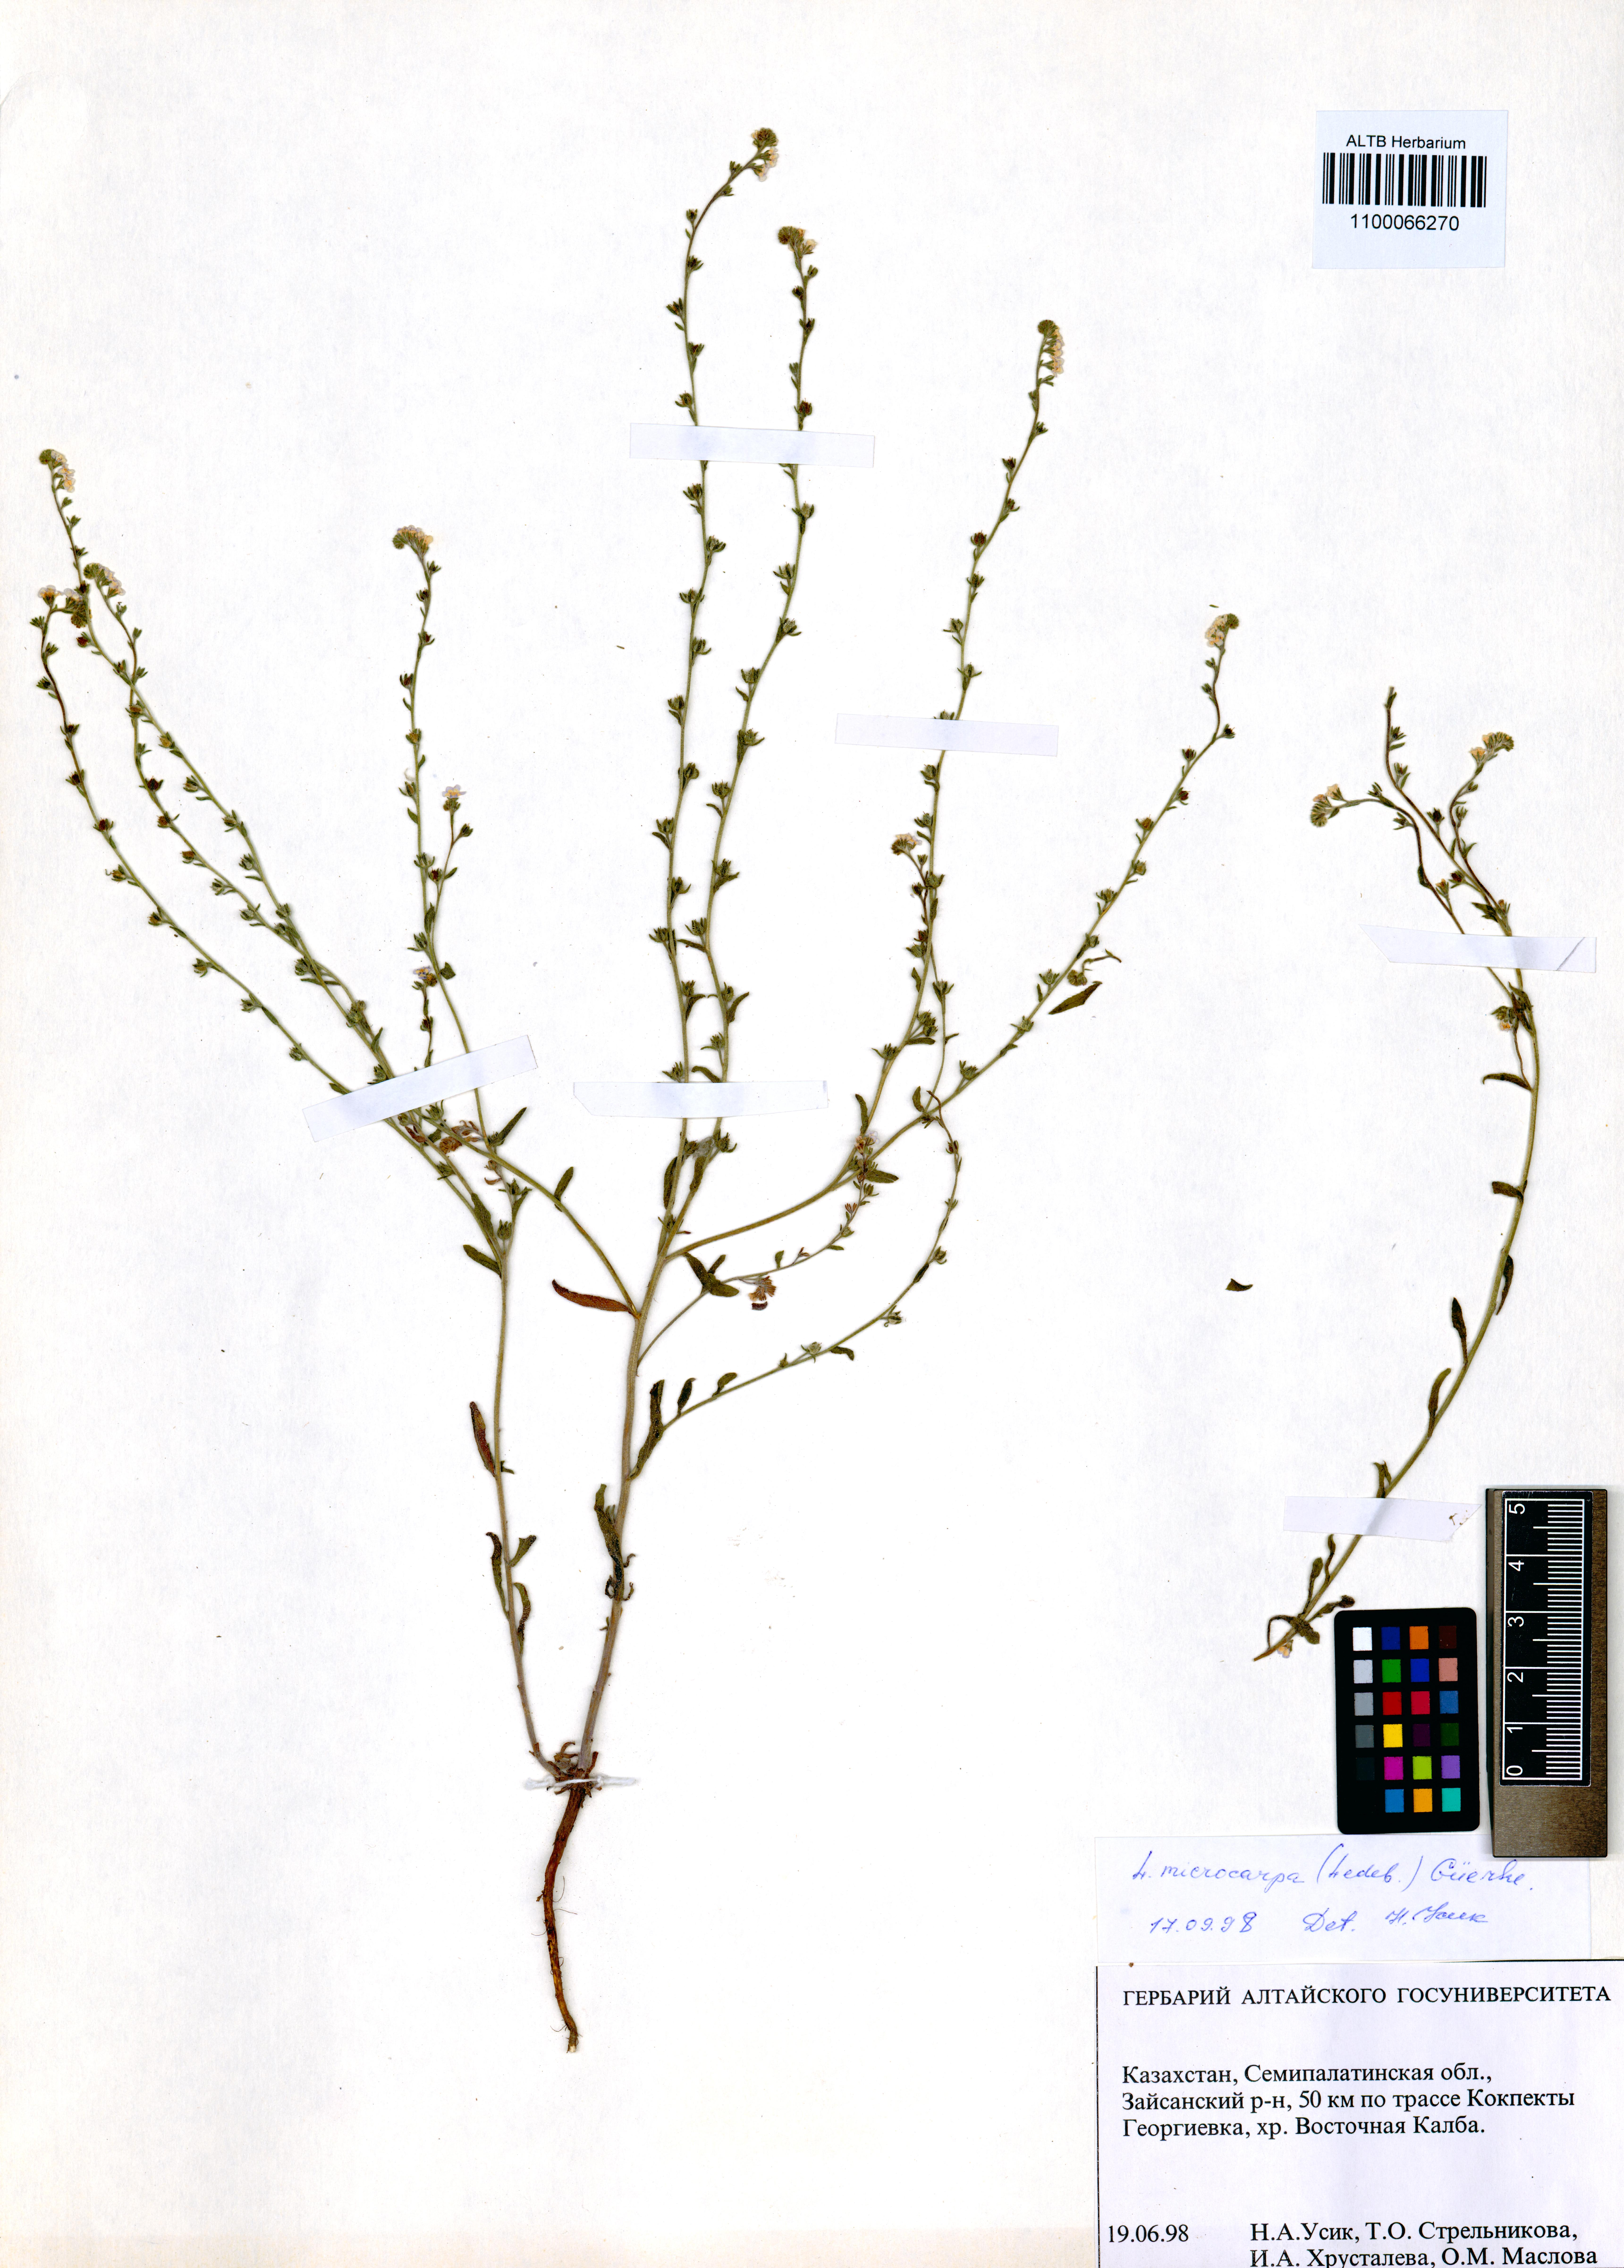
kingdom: Plantae
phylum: Tracheophyta
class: Magnoliopsida
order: Boraginales
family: Boraginaceae
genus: Lappula
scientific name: Lappula microcarpa
